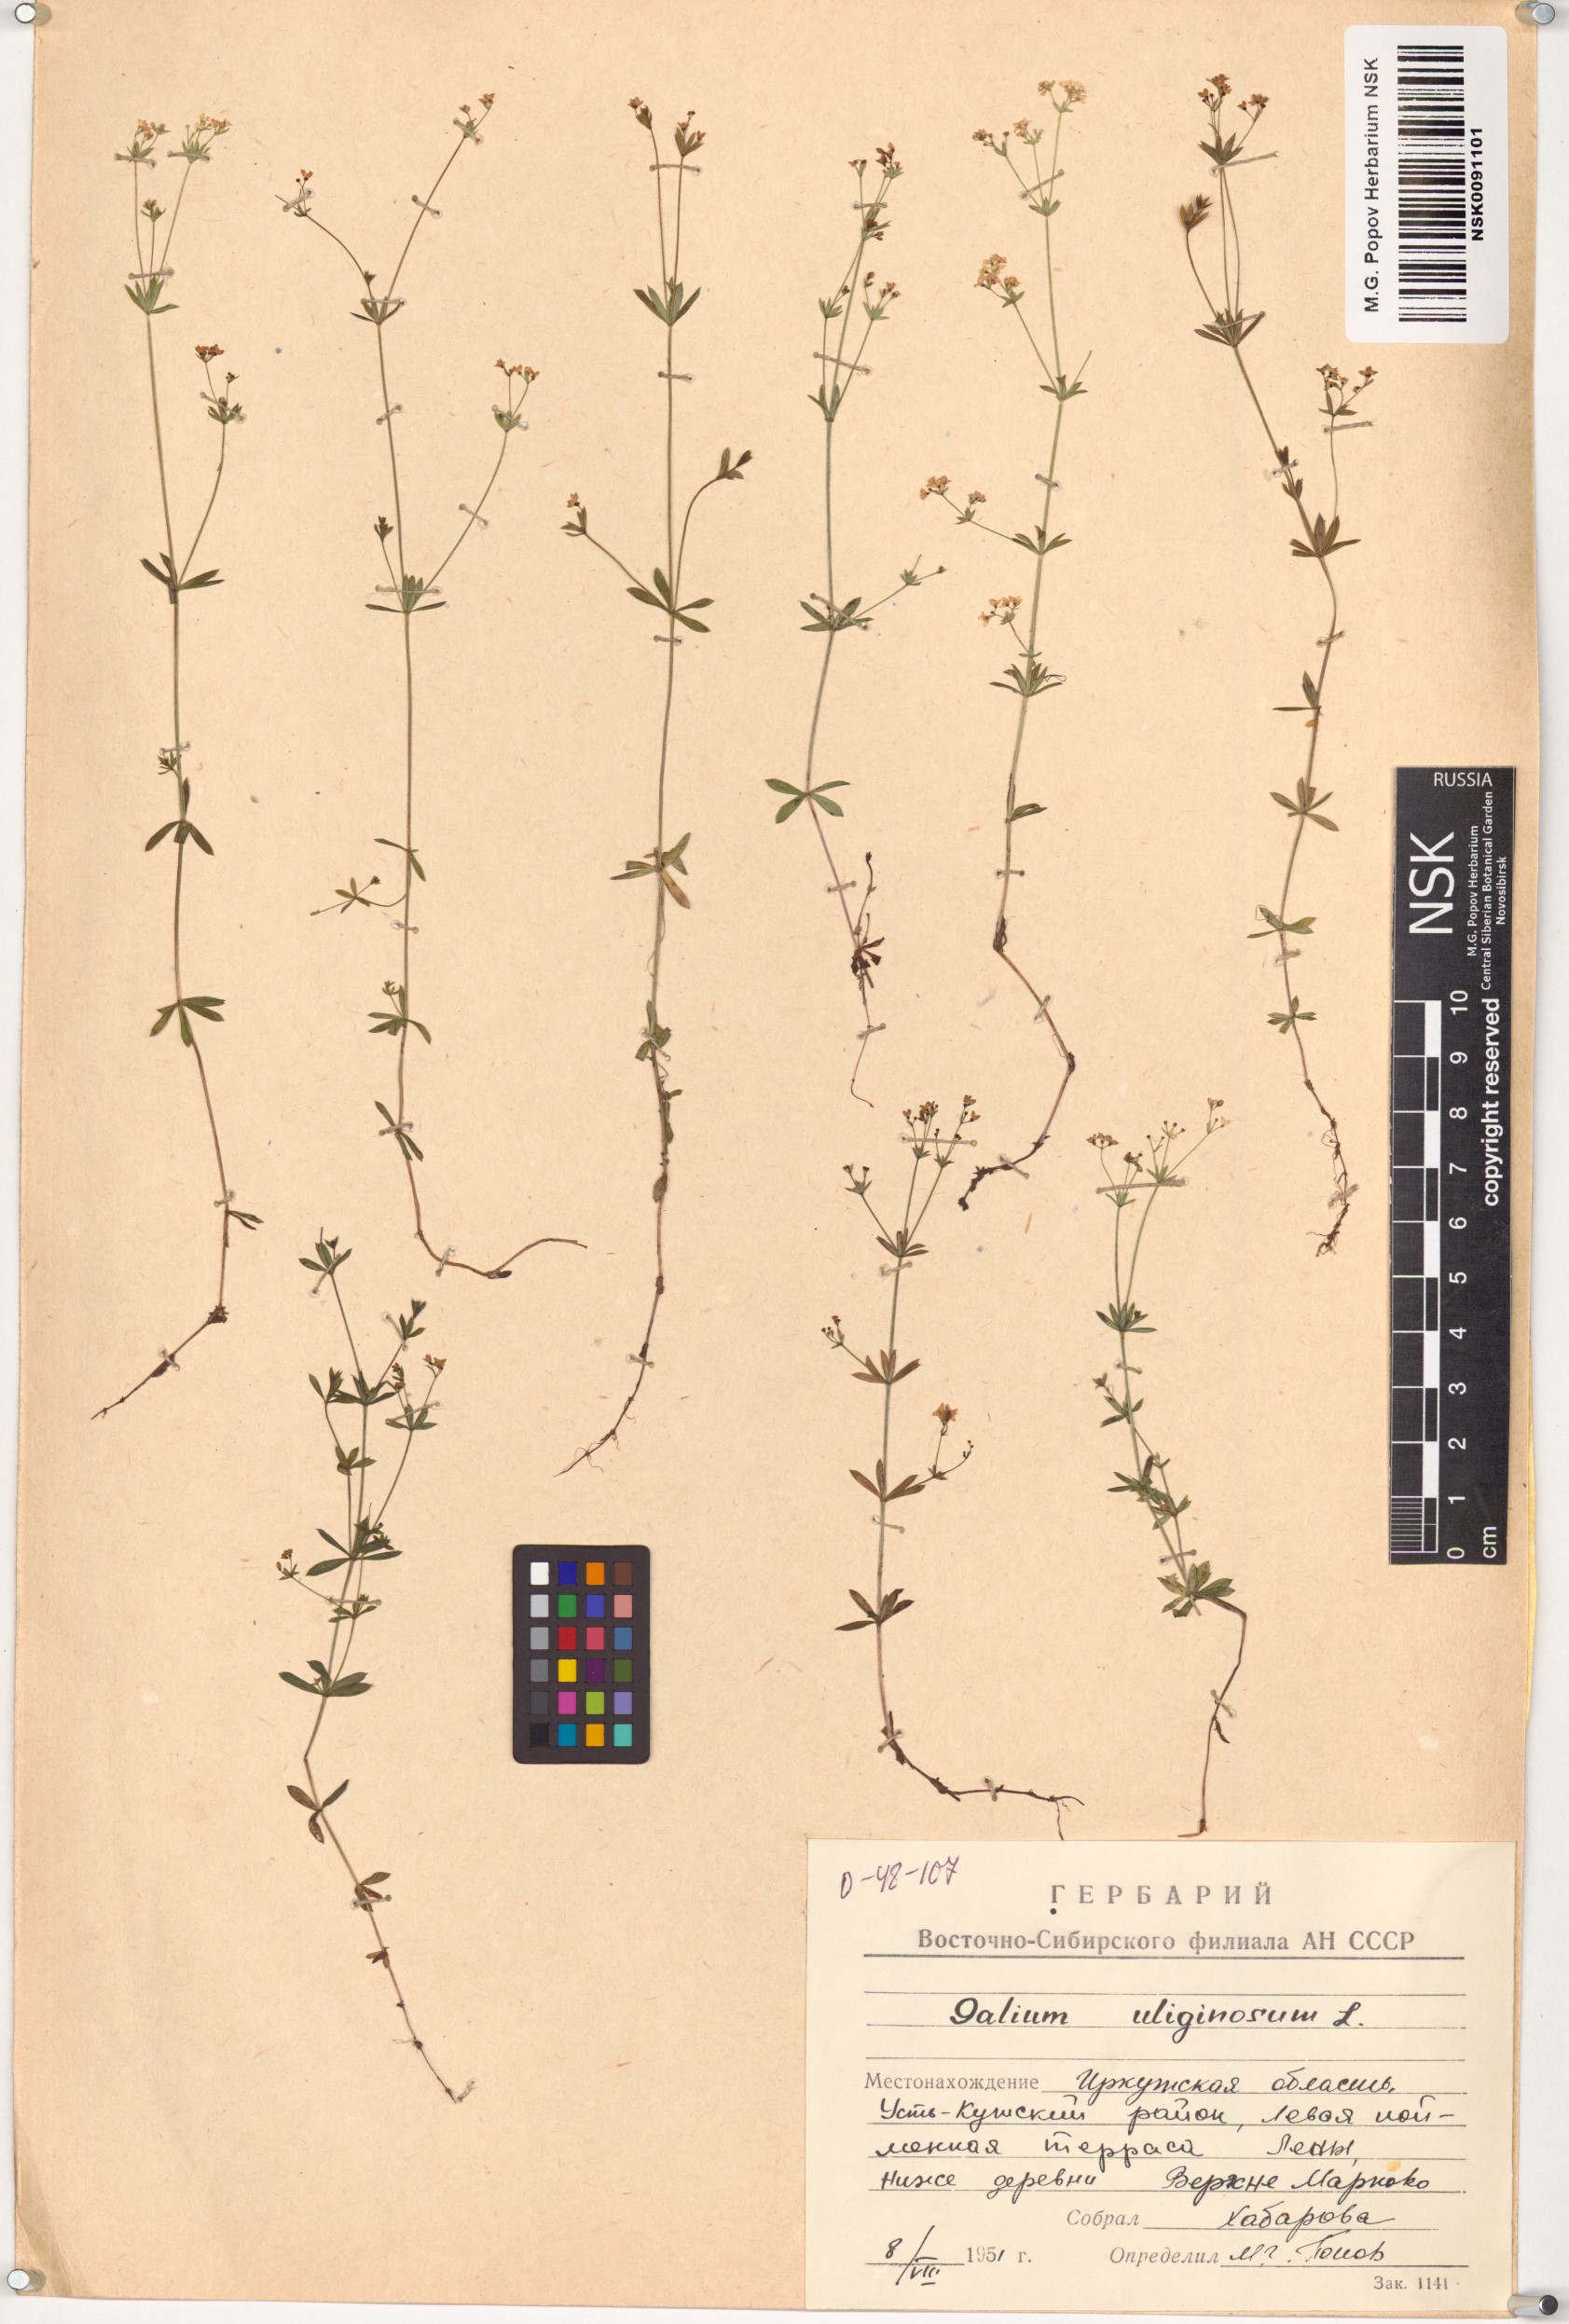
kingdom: Plantae
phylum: Tracheophyta
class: Magnoliopsida
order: Gentianales
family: Rubiaceae
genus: Galium
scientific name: Galium uliginosum
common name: Fen bedstraw
